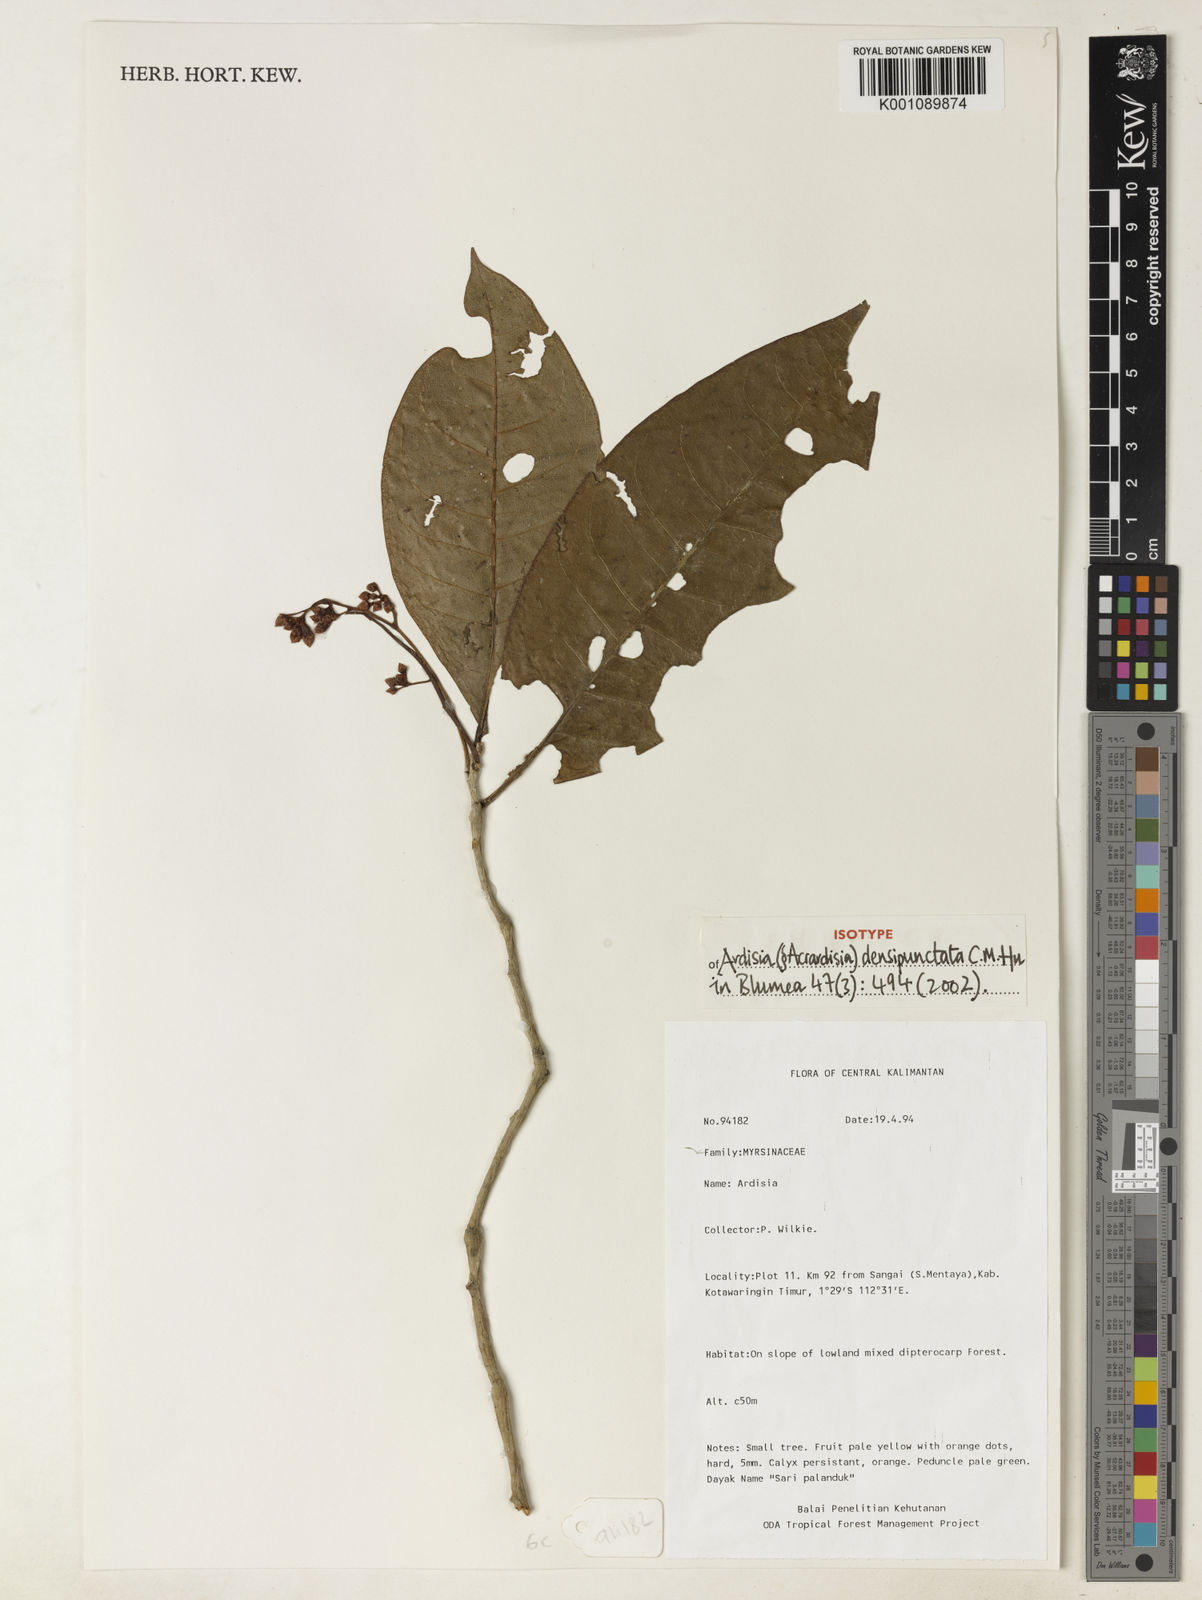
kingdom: Plantae
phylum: Tracheophyta
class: Magnoliopsida
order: Ericales
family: Primulaceae
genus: Ardisia
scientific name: Ardisia densipunctata
